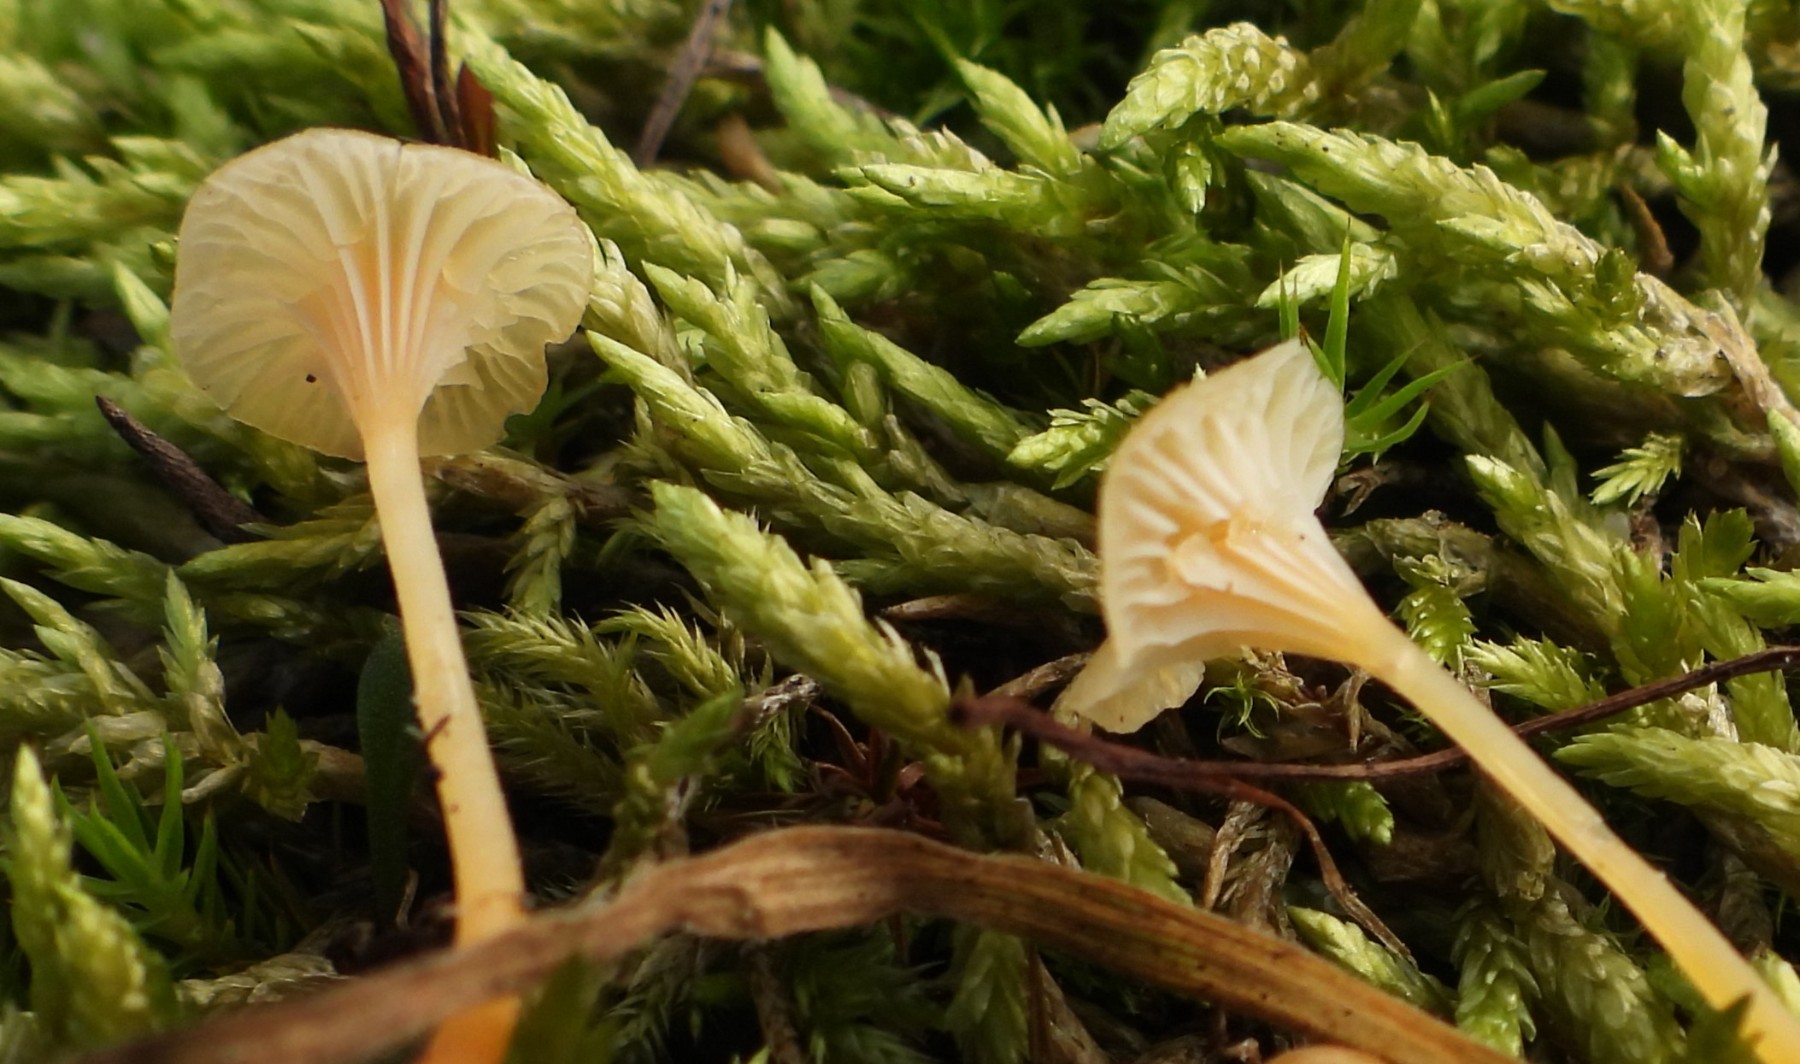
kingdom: Fungi
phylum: Basidiomycota
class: Agaricomycetes
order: Hymenochaetales
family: Rickenellaceae
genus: Rickenella
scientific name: Rickenella fibula
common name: orange mosnavlehat
